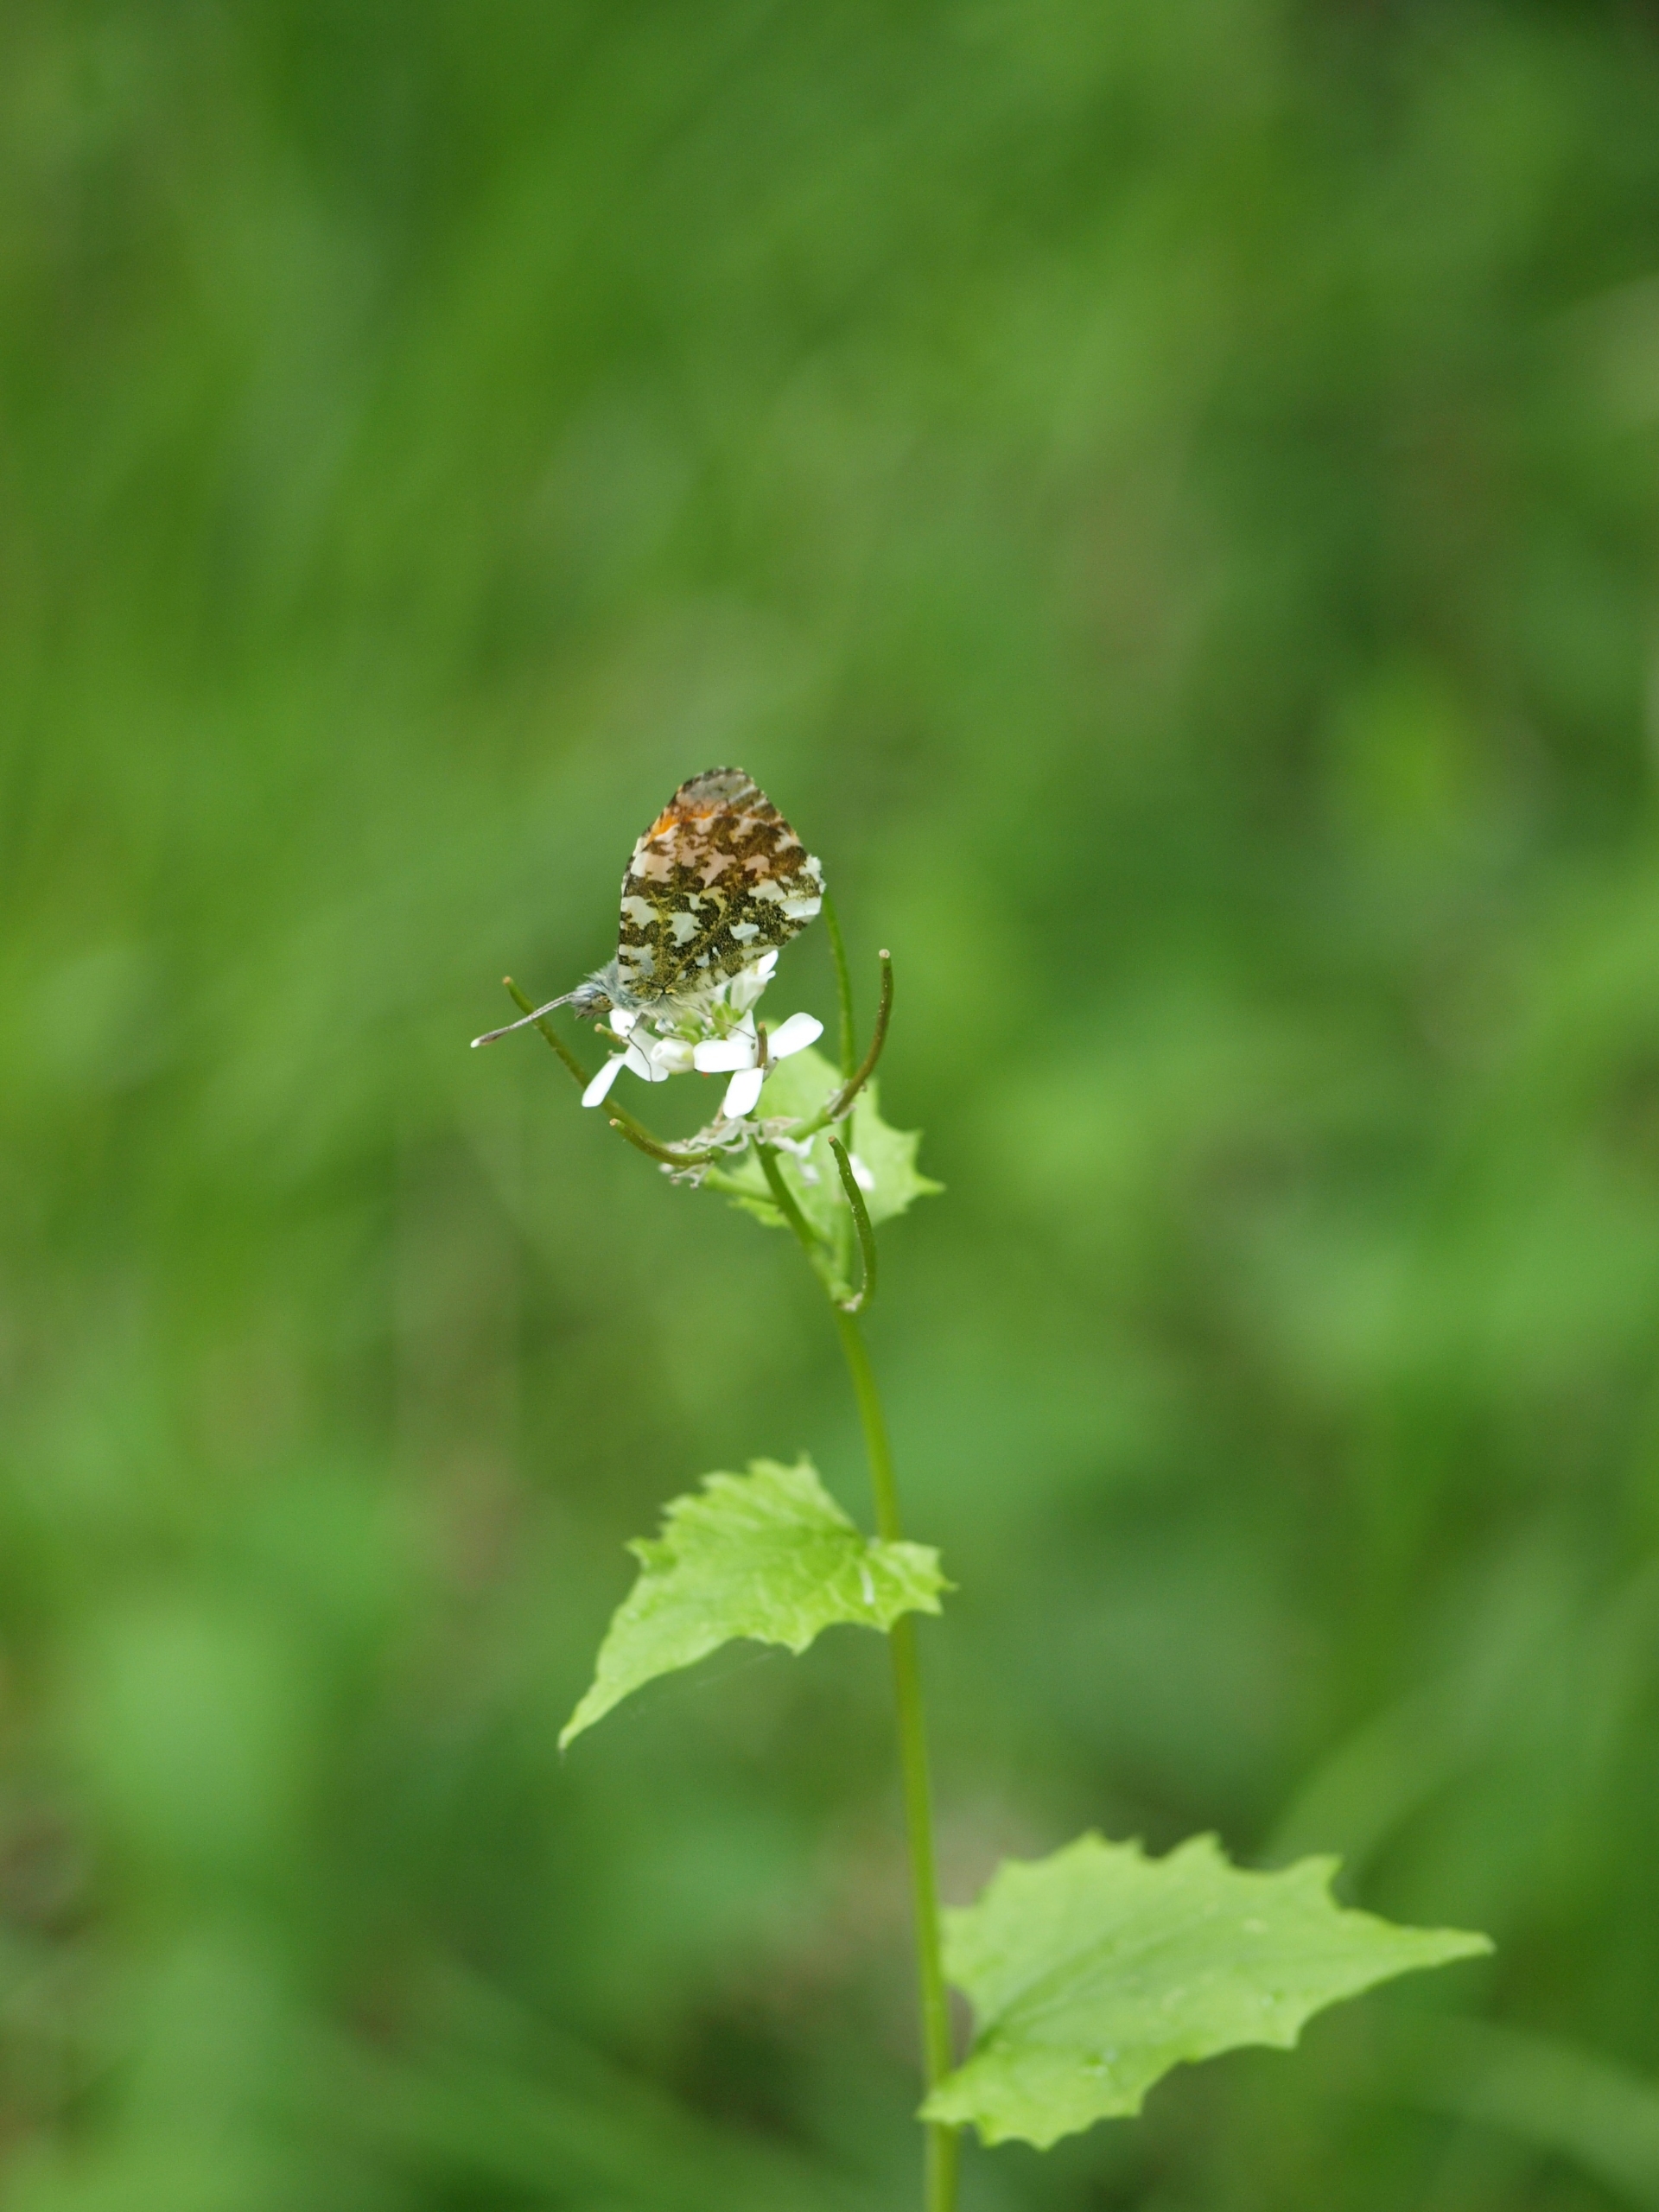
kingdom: Animalia
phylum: Arthropoda
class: Insecta
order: Lepidoptera
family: Pieridae
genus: Anthocharis
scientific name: Anthocharis cardamines
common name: Aurora
